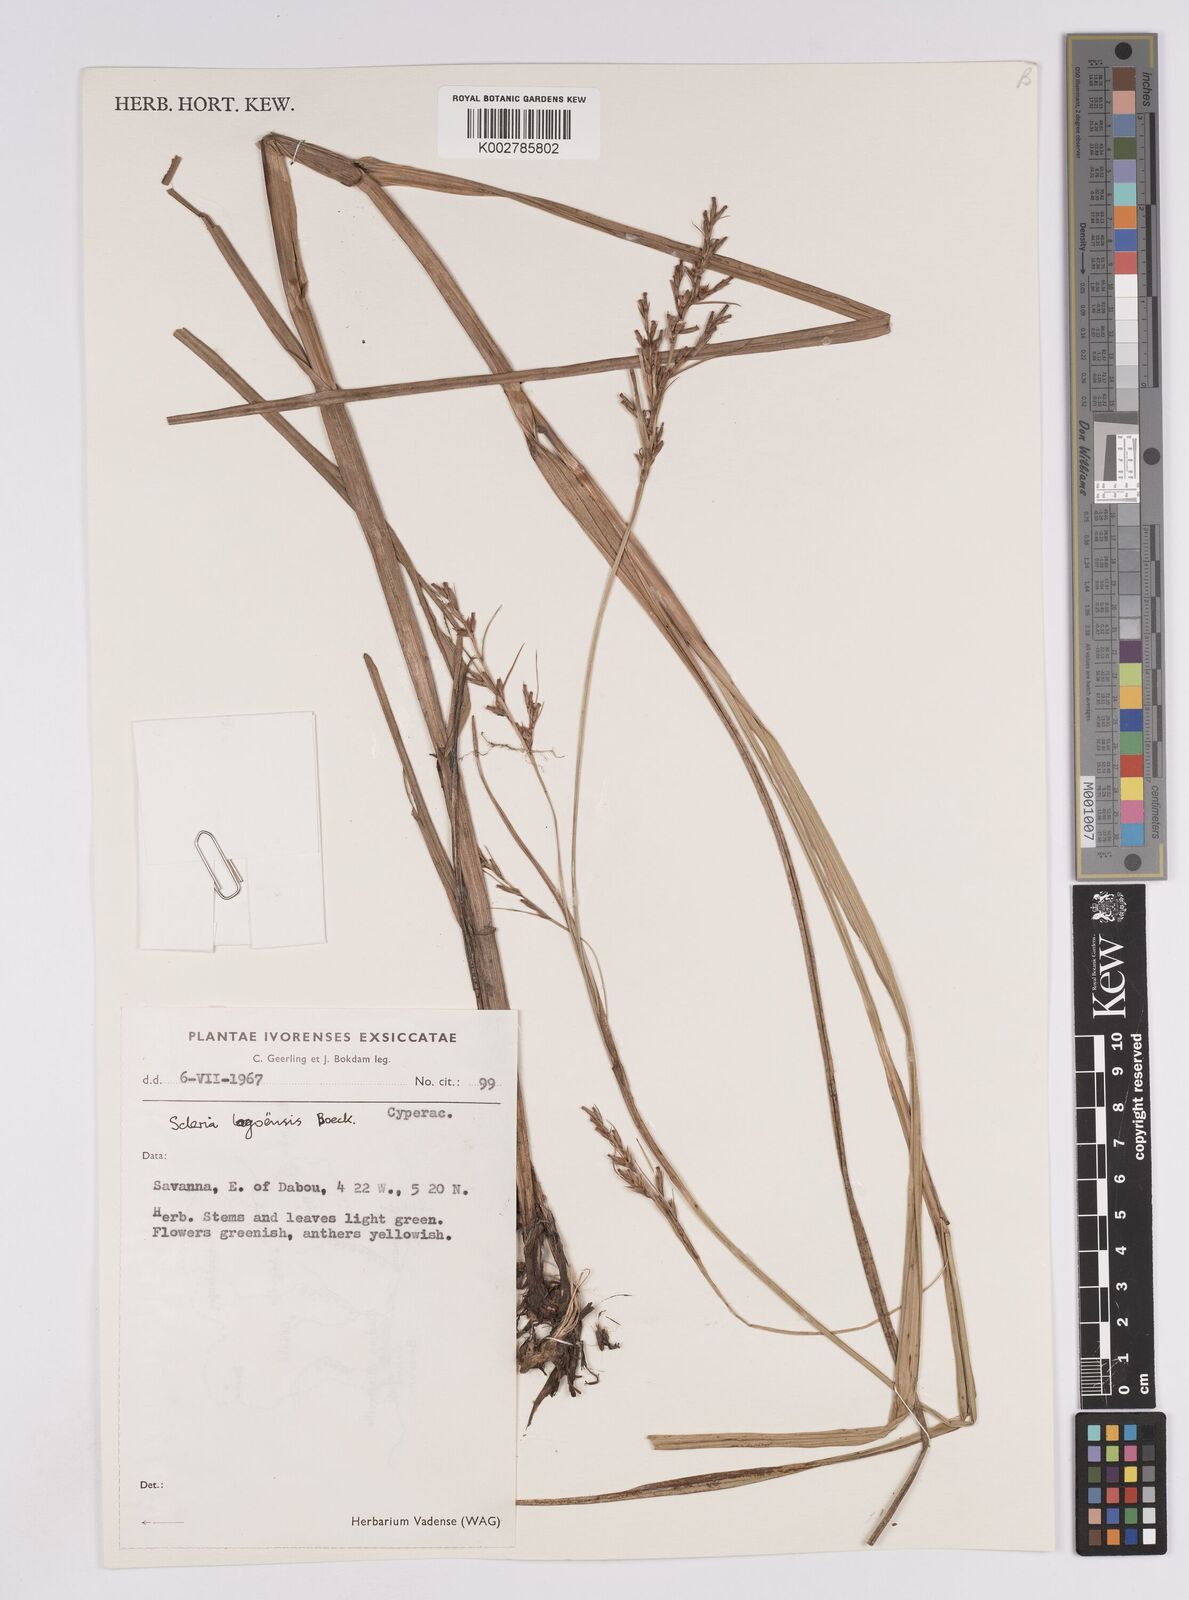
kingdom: Plantae
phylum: Tracheophyta
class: Liliopsida
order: Poales
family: Cyperaceae
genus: Scleria
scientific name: Scleria lagoensis
